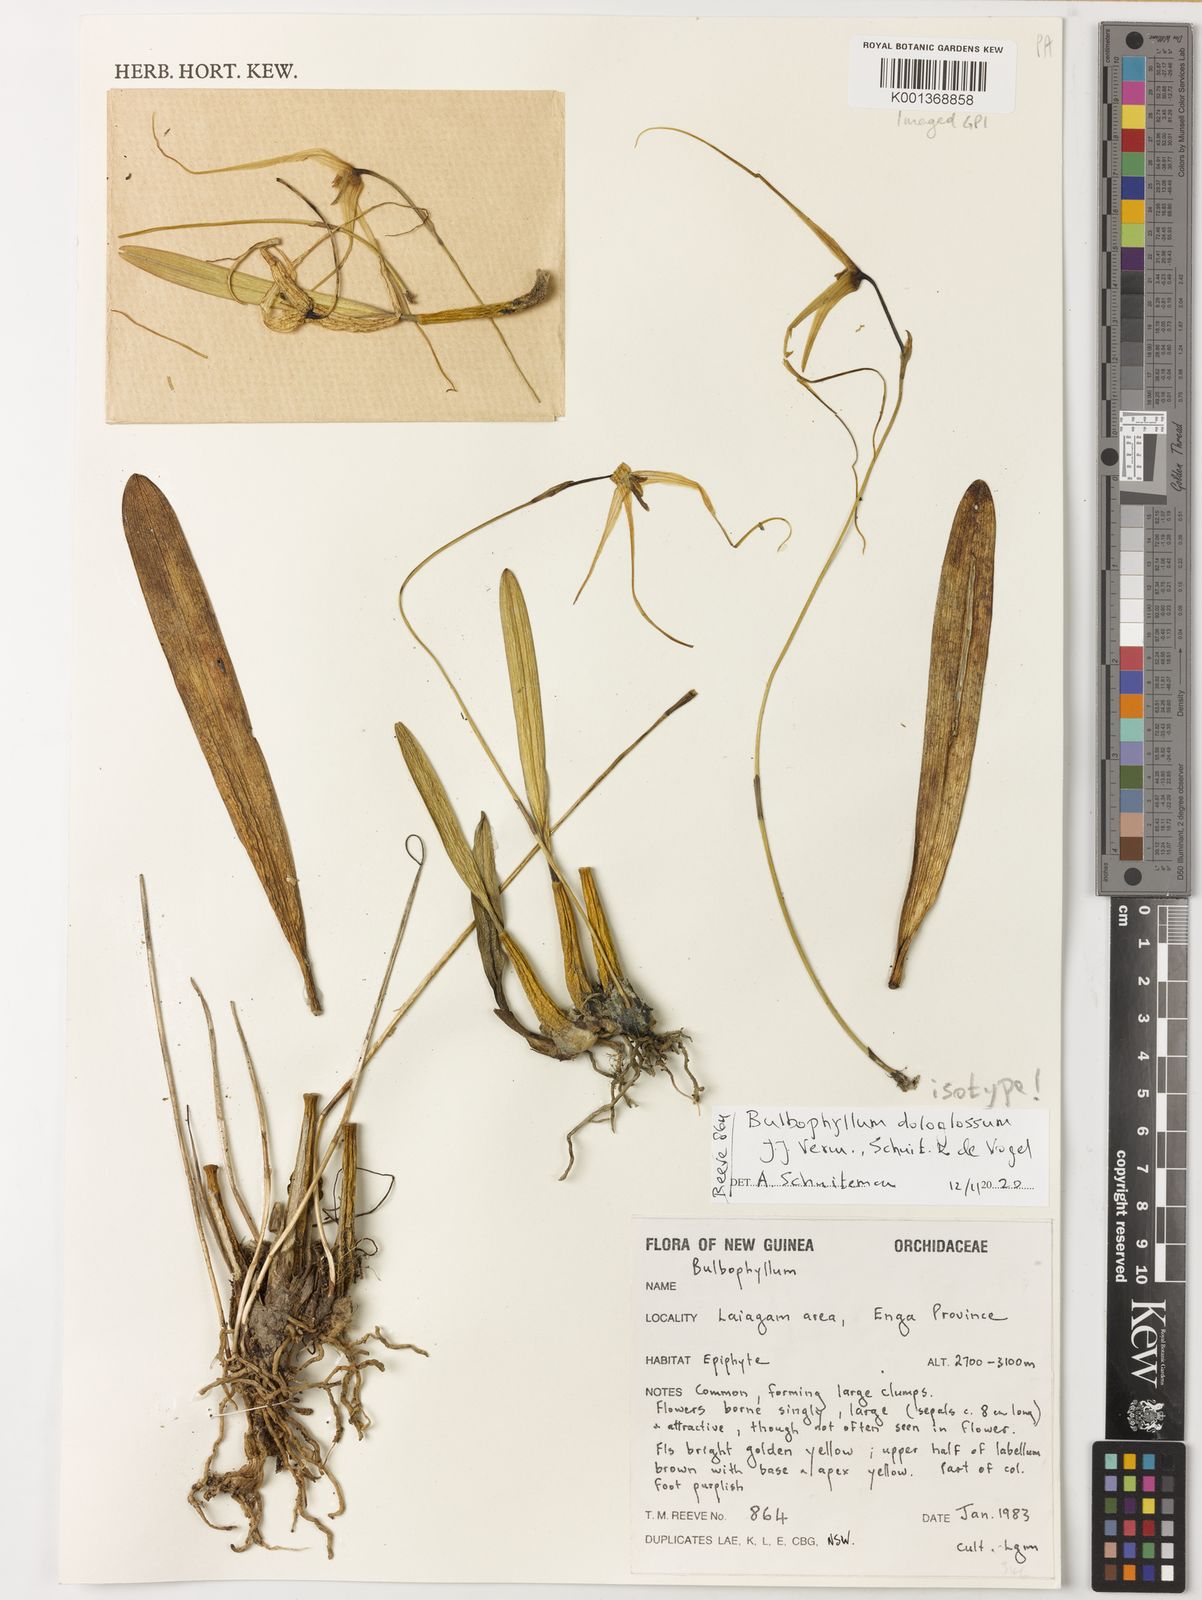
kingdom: Plantae
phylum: Tracheophyta
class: Liliopsida
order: Asparagales
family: Orchidaceae
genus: Bulbophyllum
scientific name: Bulbophyllum
